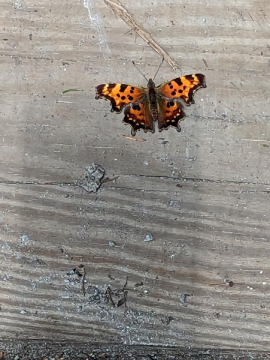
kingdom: Animalia
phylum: Arthropoda
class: Insecta
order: Lepidoptera
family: Nymphalidae
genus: Polygonia
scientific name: Polygonia faunus
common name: Green Comma
